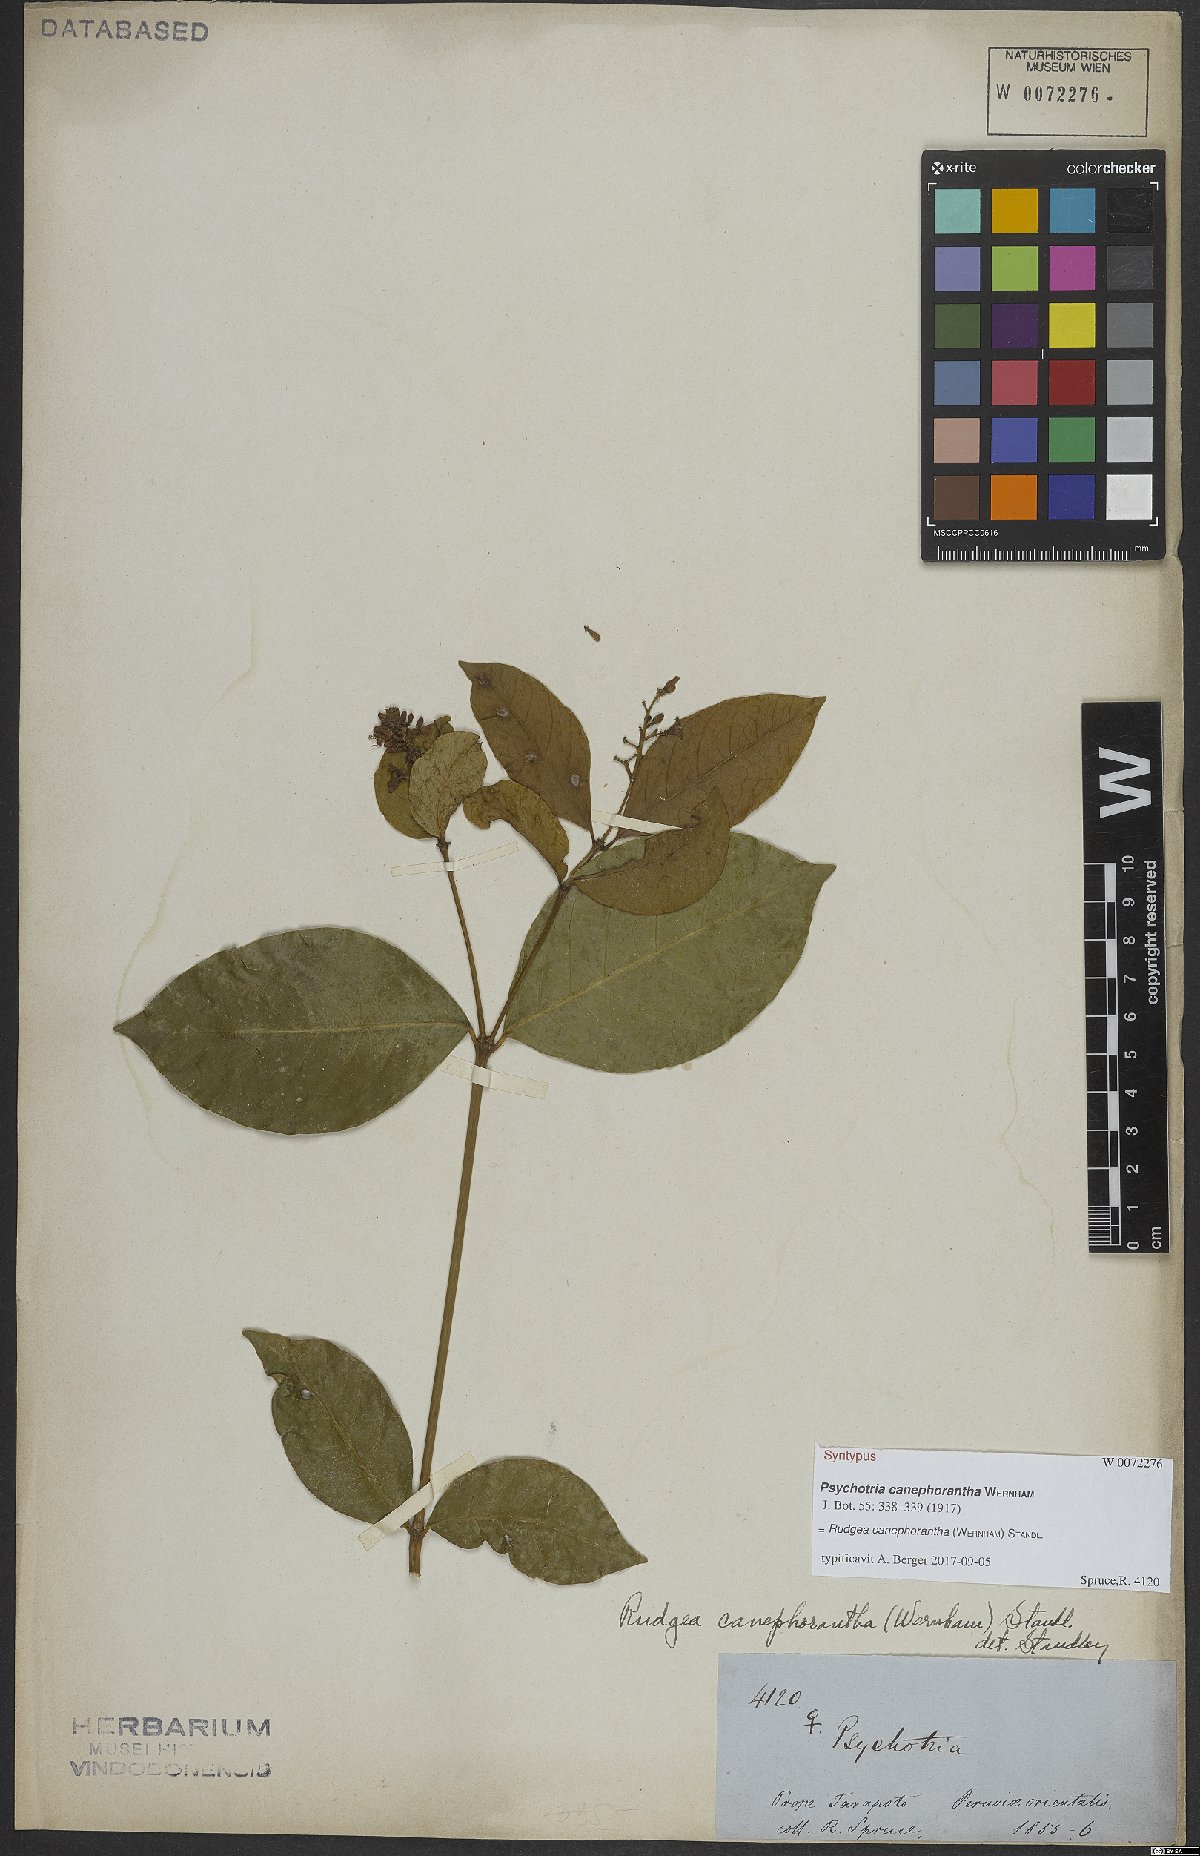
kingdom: Plantae
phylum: Tracheophyta
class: Magnoliopsida
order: Gentianales
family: Rubiaceae
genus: Rudgea
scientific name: Rudgea canephorantha
